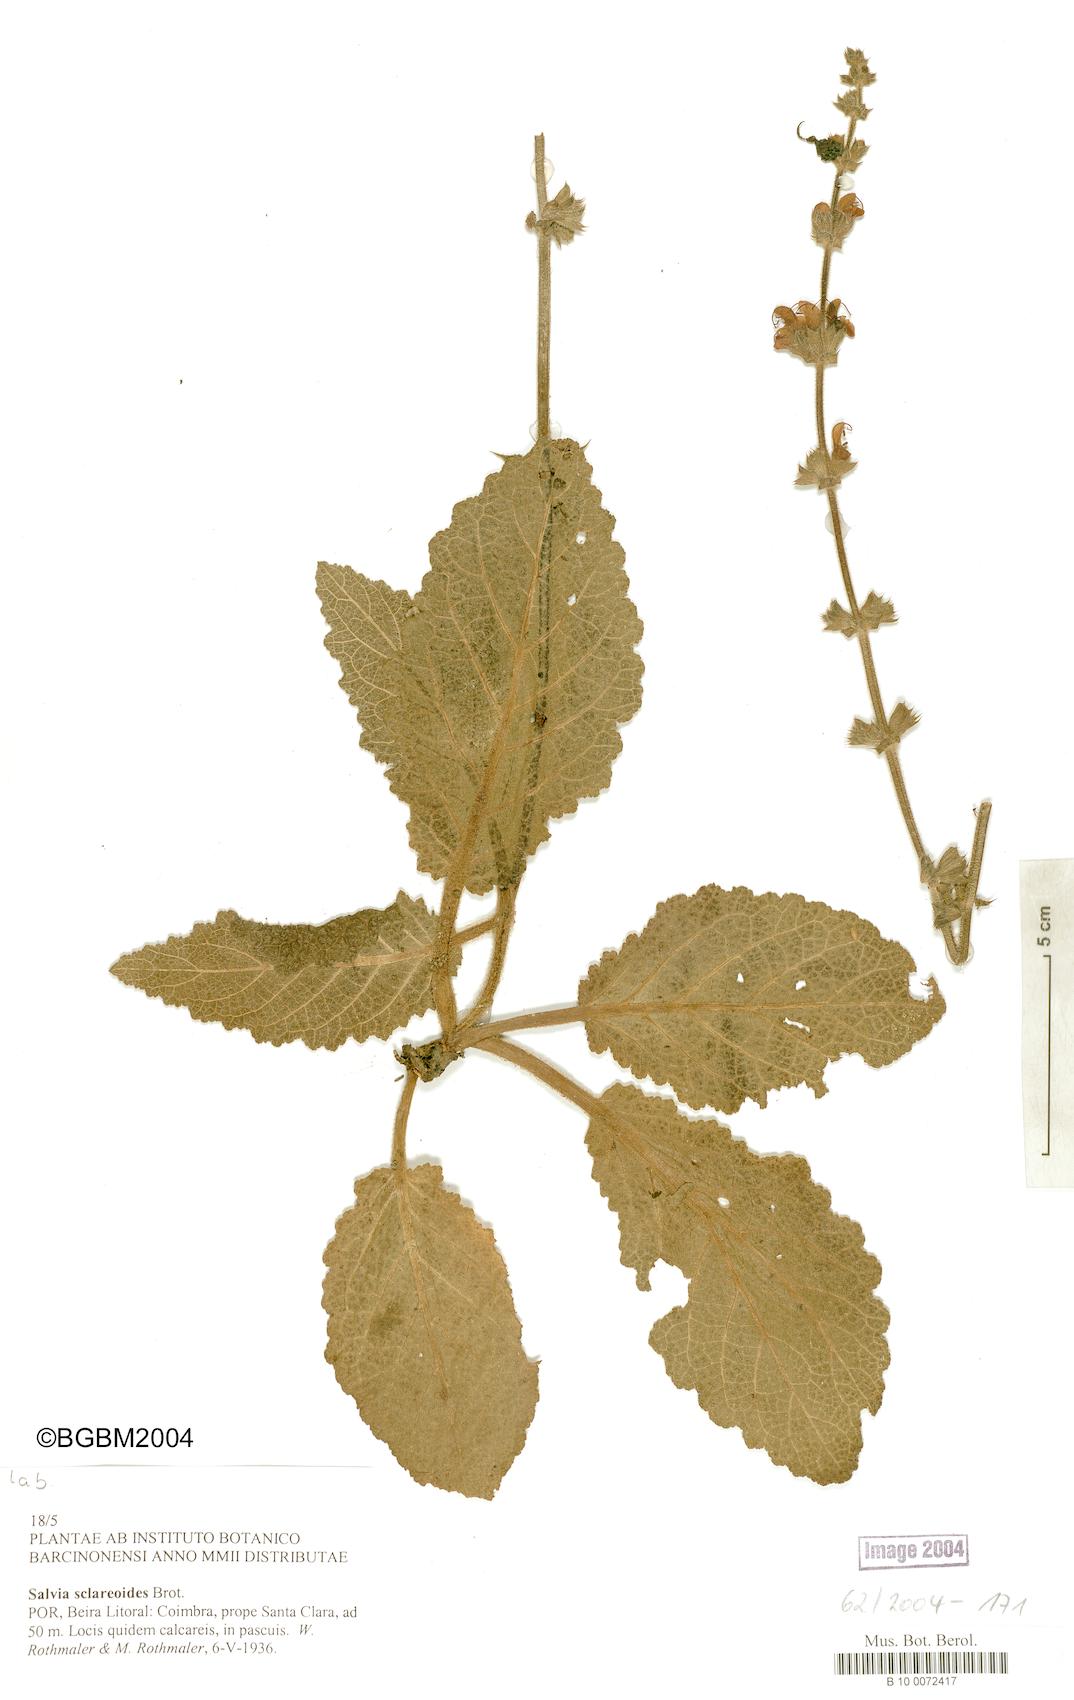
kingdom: Plantae
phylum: Tracheophyta
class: Magnoliopsida
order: Lamiales
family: Lamiaceae
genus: Salvia
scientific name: Salvia sclareoides
